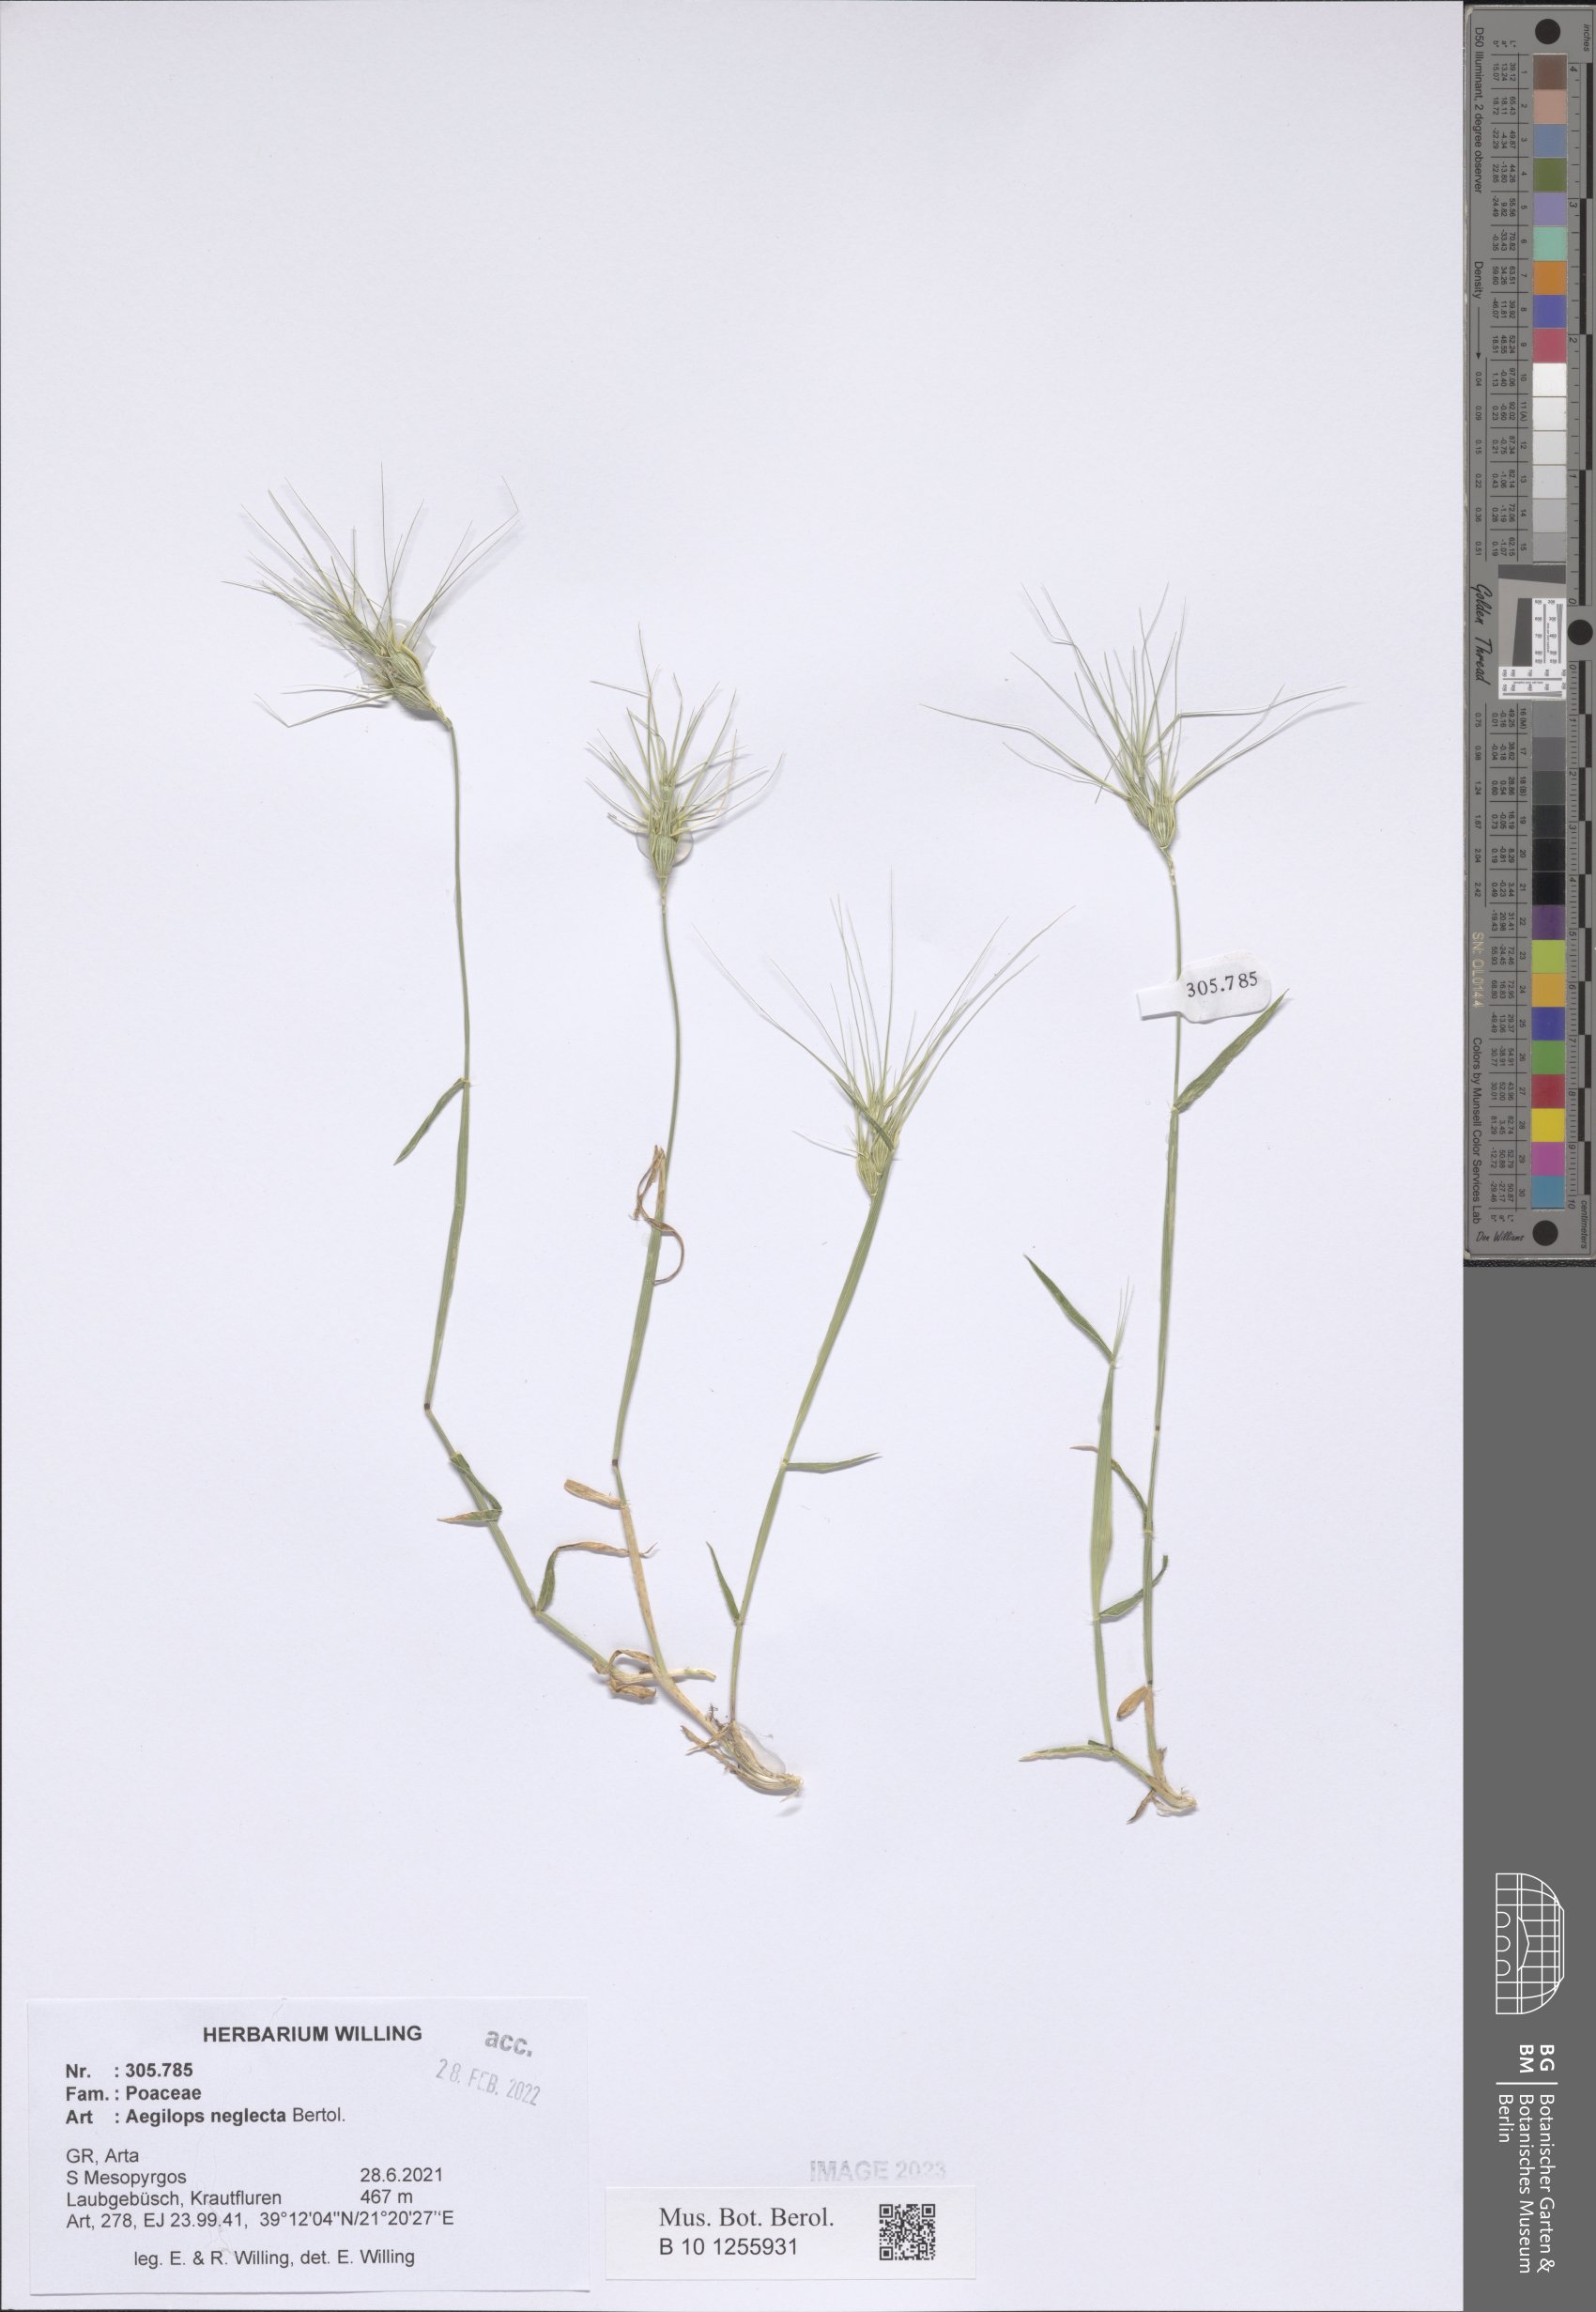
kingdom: Plantae
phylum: Tracheophyta
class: Liliopsida
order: Poales
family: Poaceae
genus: Aegilops
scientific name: Aegilops neglecta
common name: Three-awn goat grass
